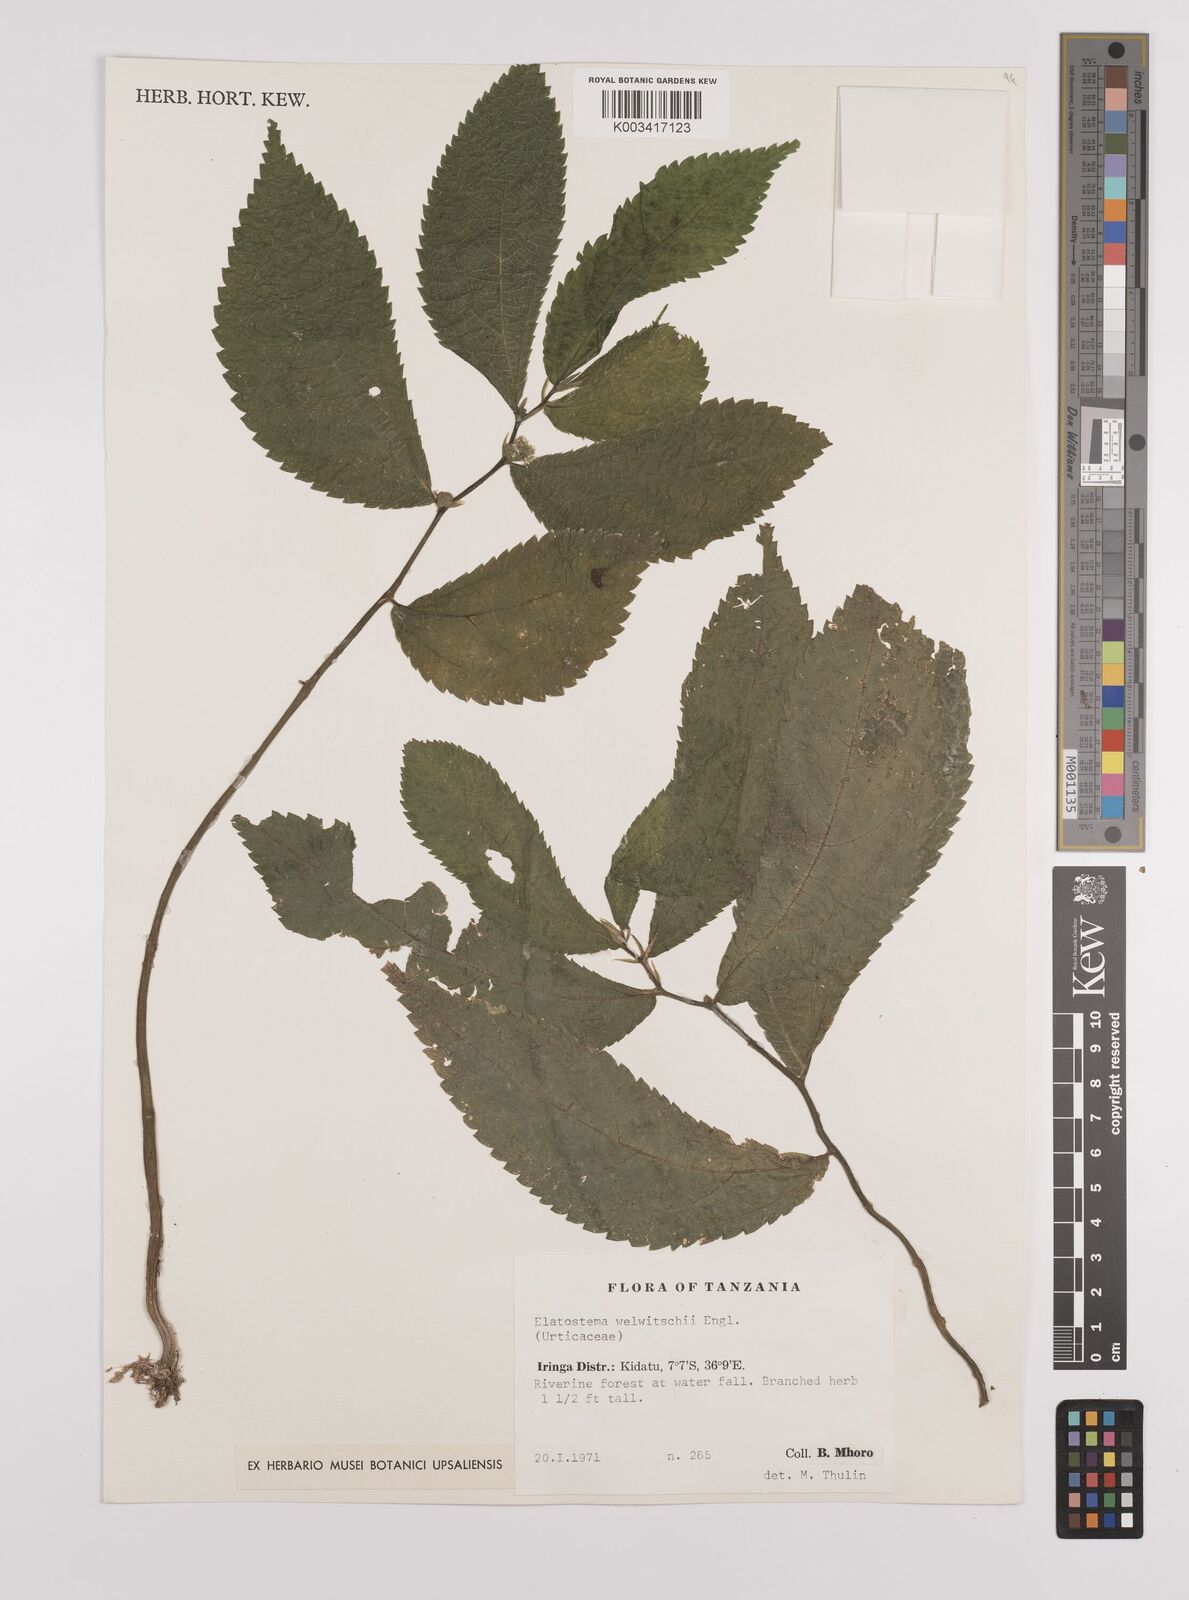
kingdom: Plantae
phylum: Tracheophyta
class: Magnoliopsida
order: Rosales
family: Urticaceae
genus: Elatostema
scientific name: Elatostema welwitschii
